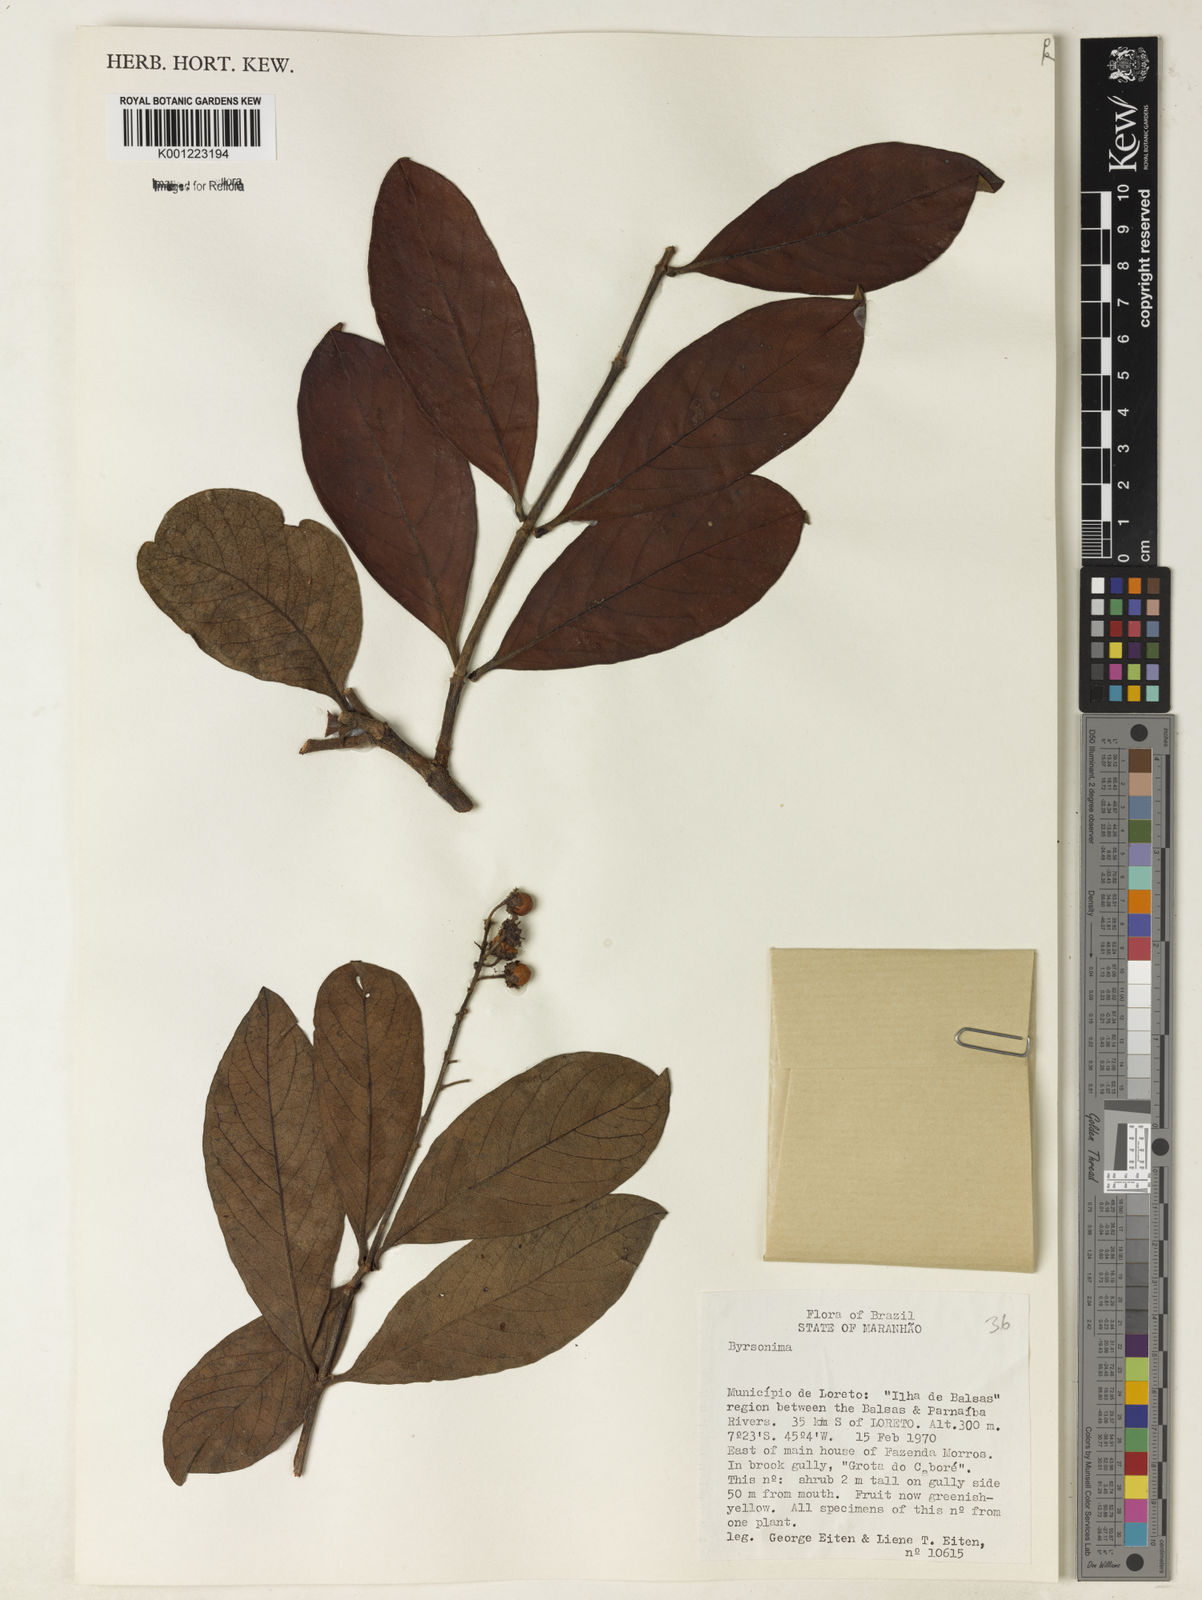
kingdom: Plantae
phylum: Tracheophyta
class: Magnoliopsida
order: Malpighiales
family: Malpighiaceae
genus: Byrsonima
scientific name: Byrsonima
